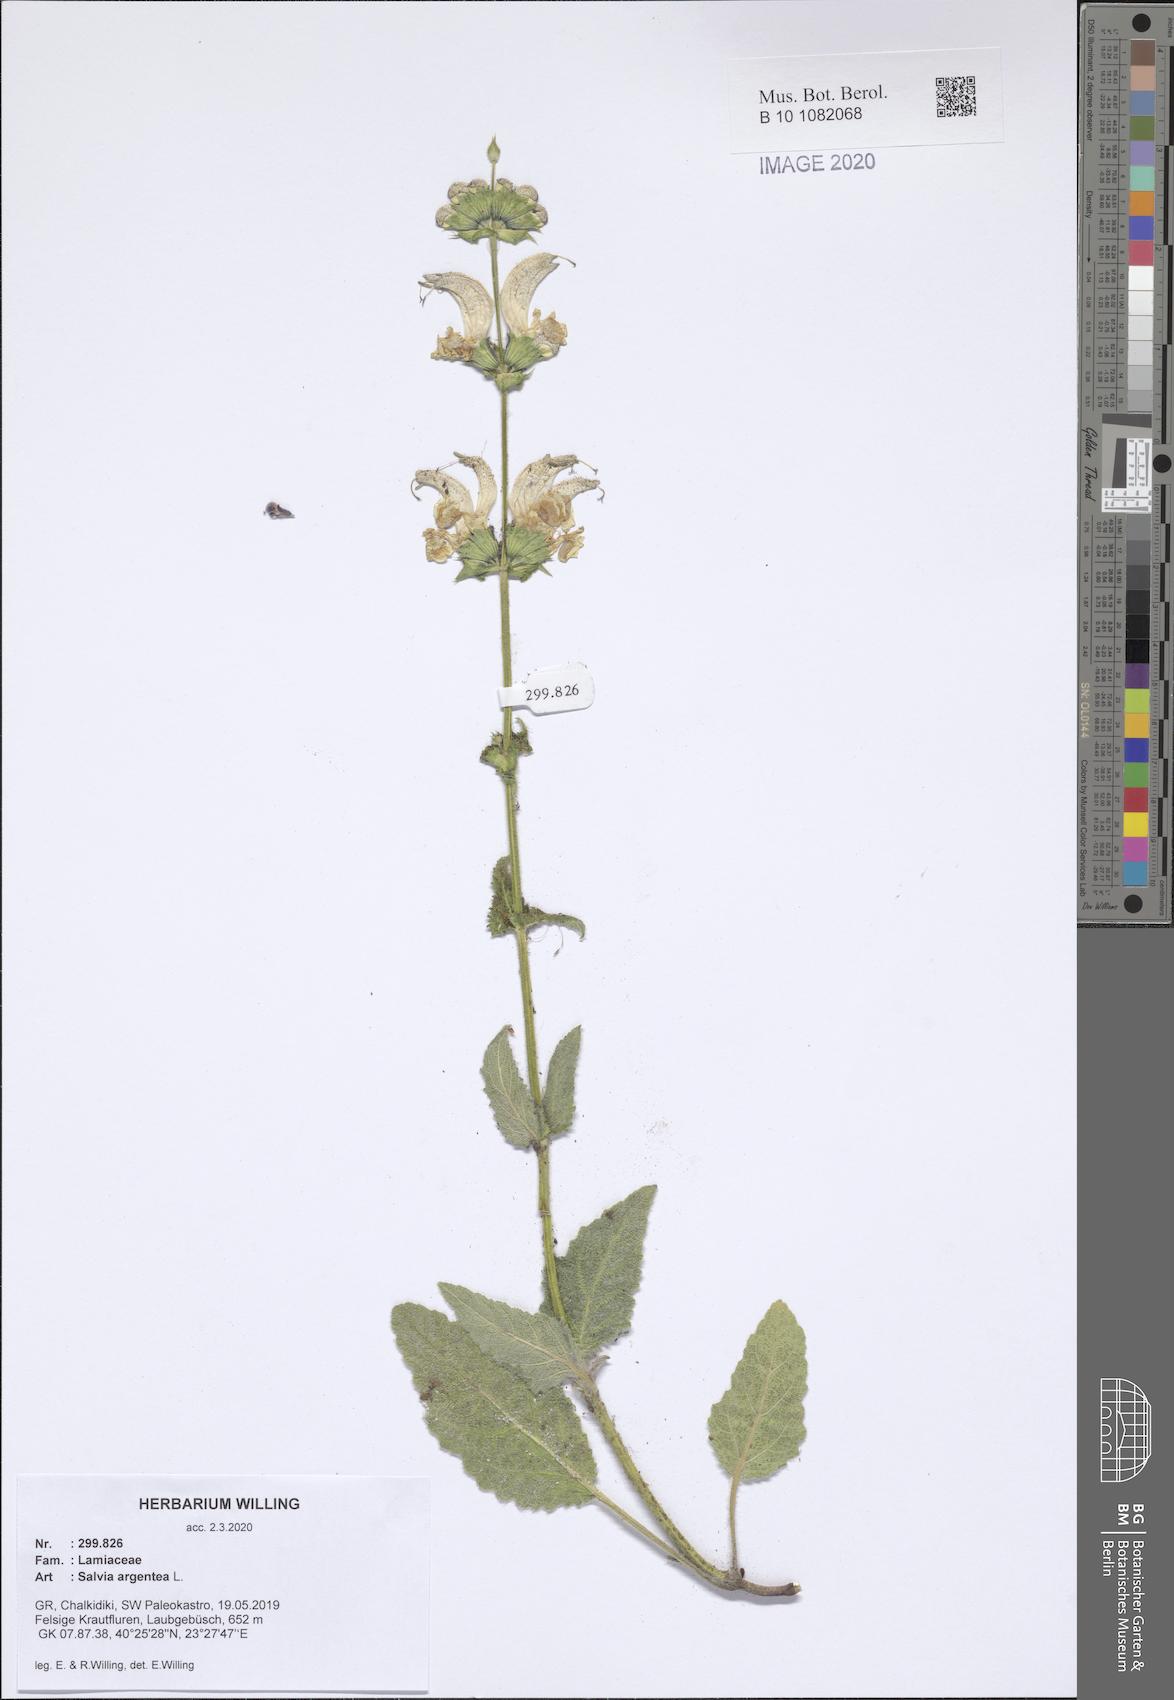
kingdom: Plantae
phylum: Tracheophyta
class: Magnoliopsida
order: Lamiales
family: Lamiaceae
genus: Salvia
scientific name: Salvia argentea
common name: Silver sage
